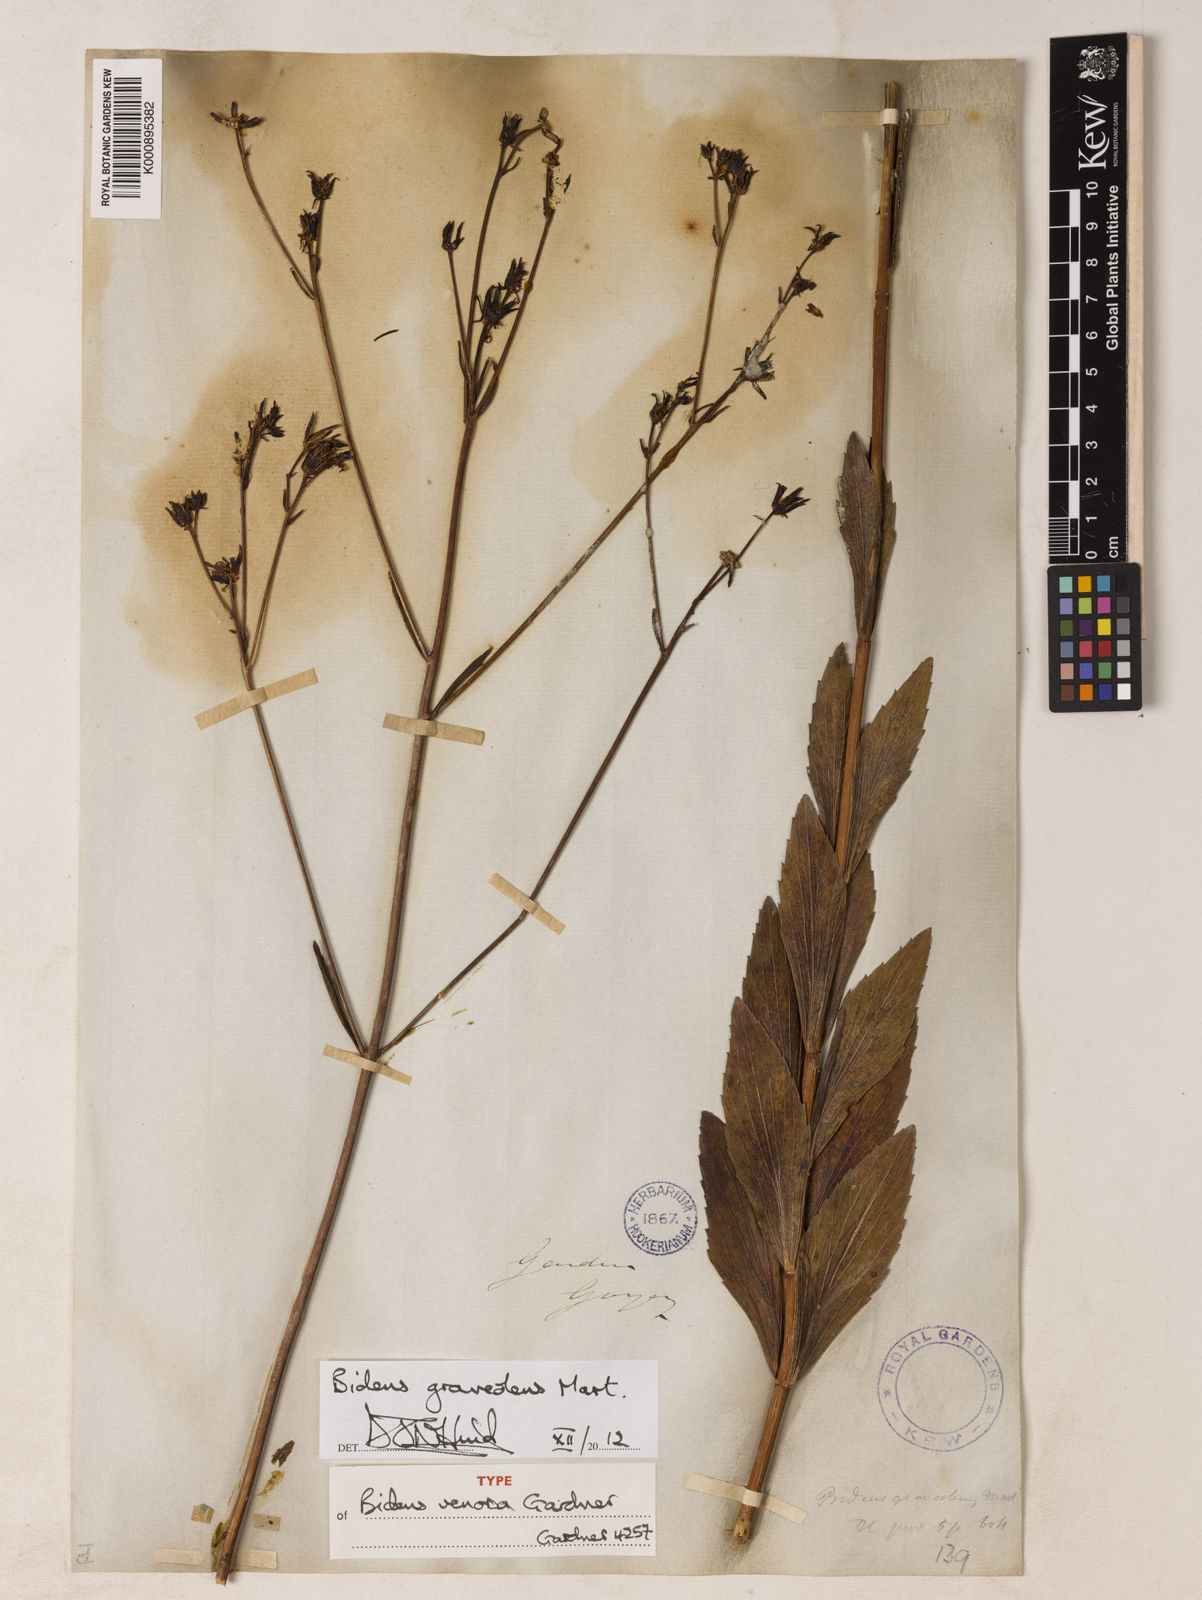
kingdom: Plantae
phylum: Tracheophyta
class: Magnoliopsida
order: Asterales
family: Asteraceae
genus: Bidens
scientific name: Bidens graveolens
